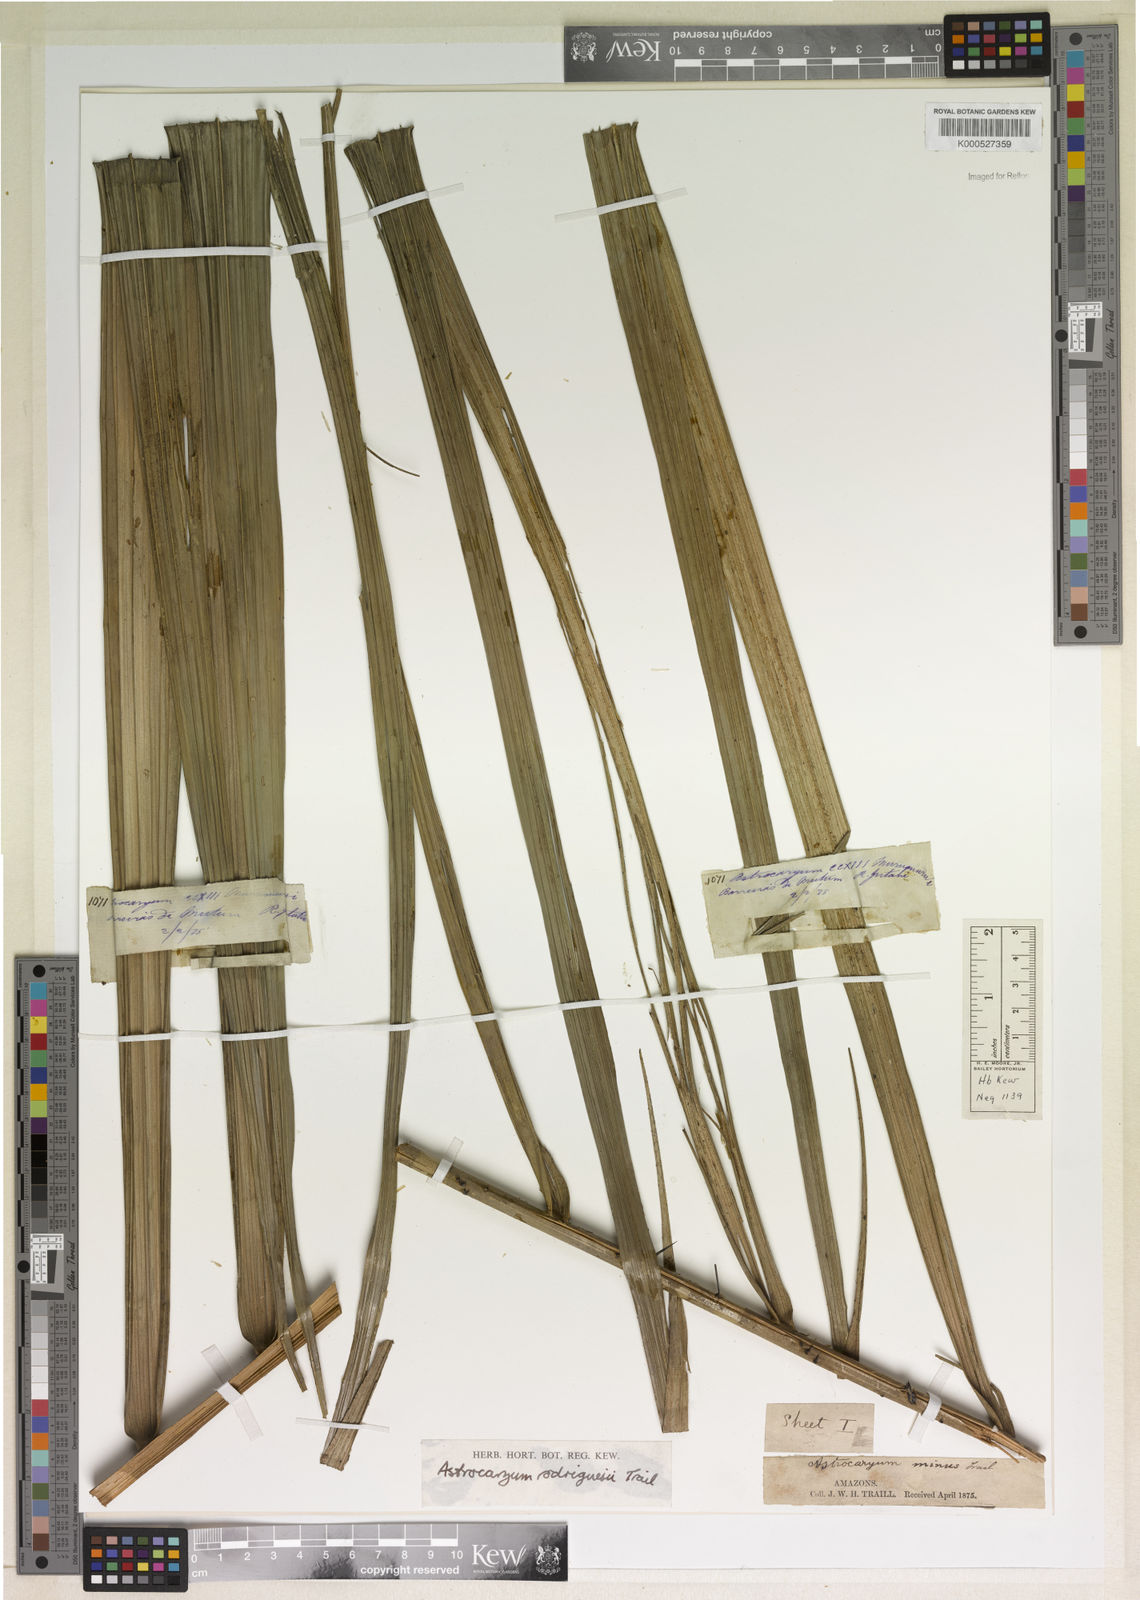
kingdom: Plantae
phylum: Tracheophyta
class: Liliopsida
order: Arecales
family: Arecaceae
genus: Astrocaryum
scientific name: Astrocaryum rodriguesii
